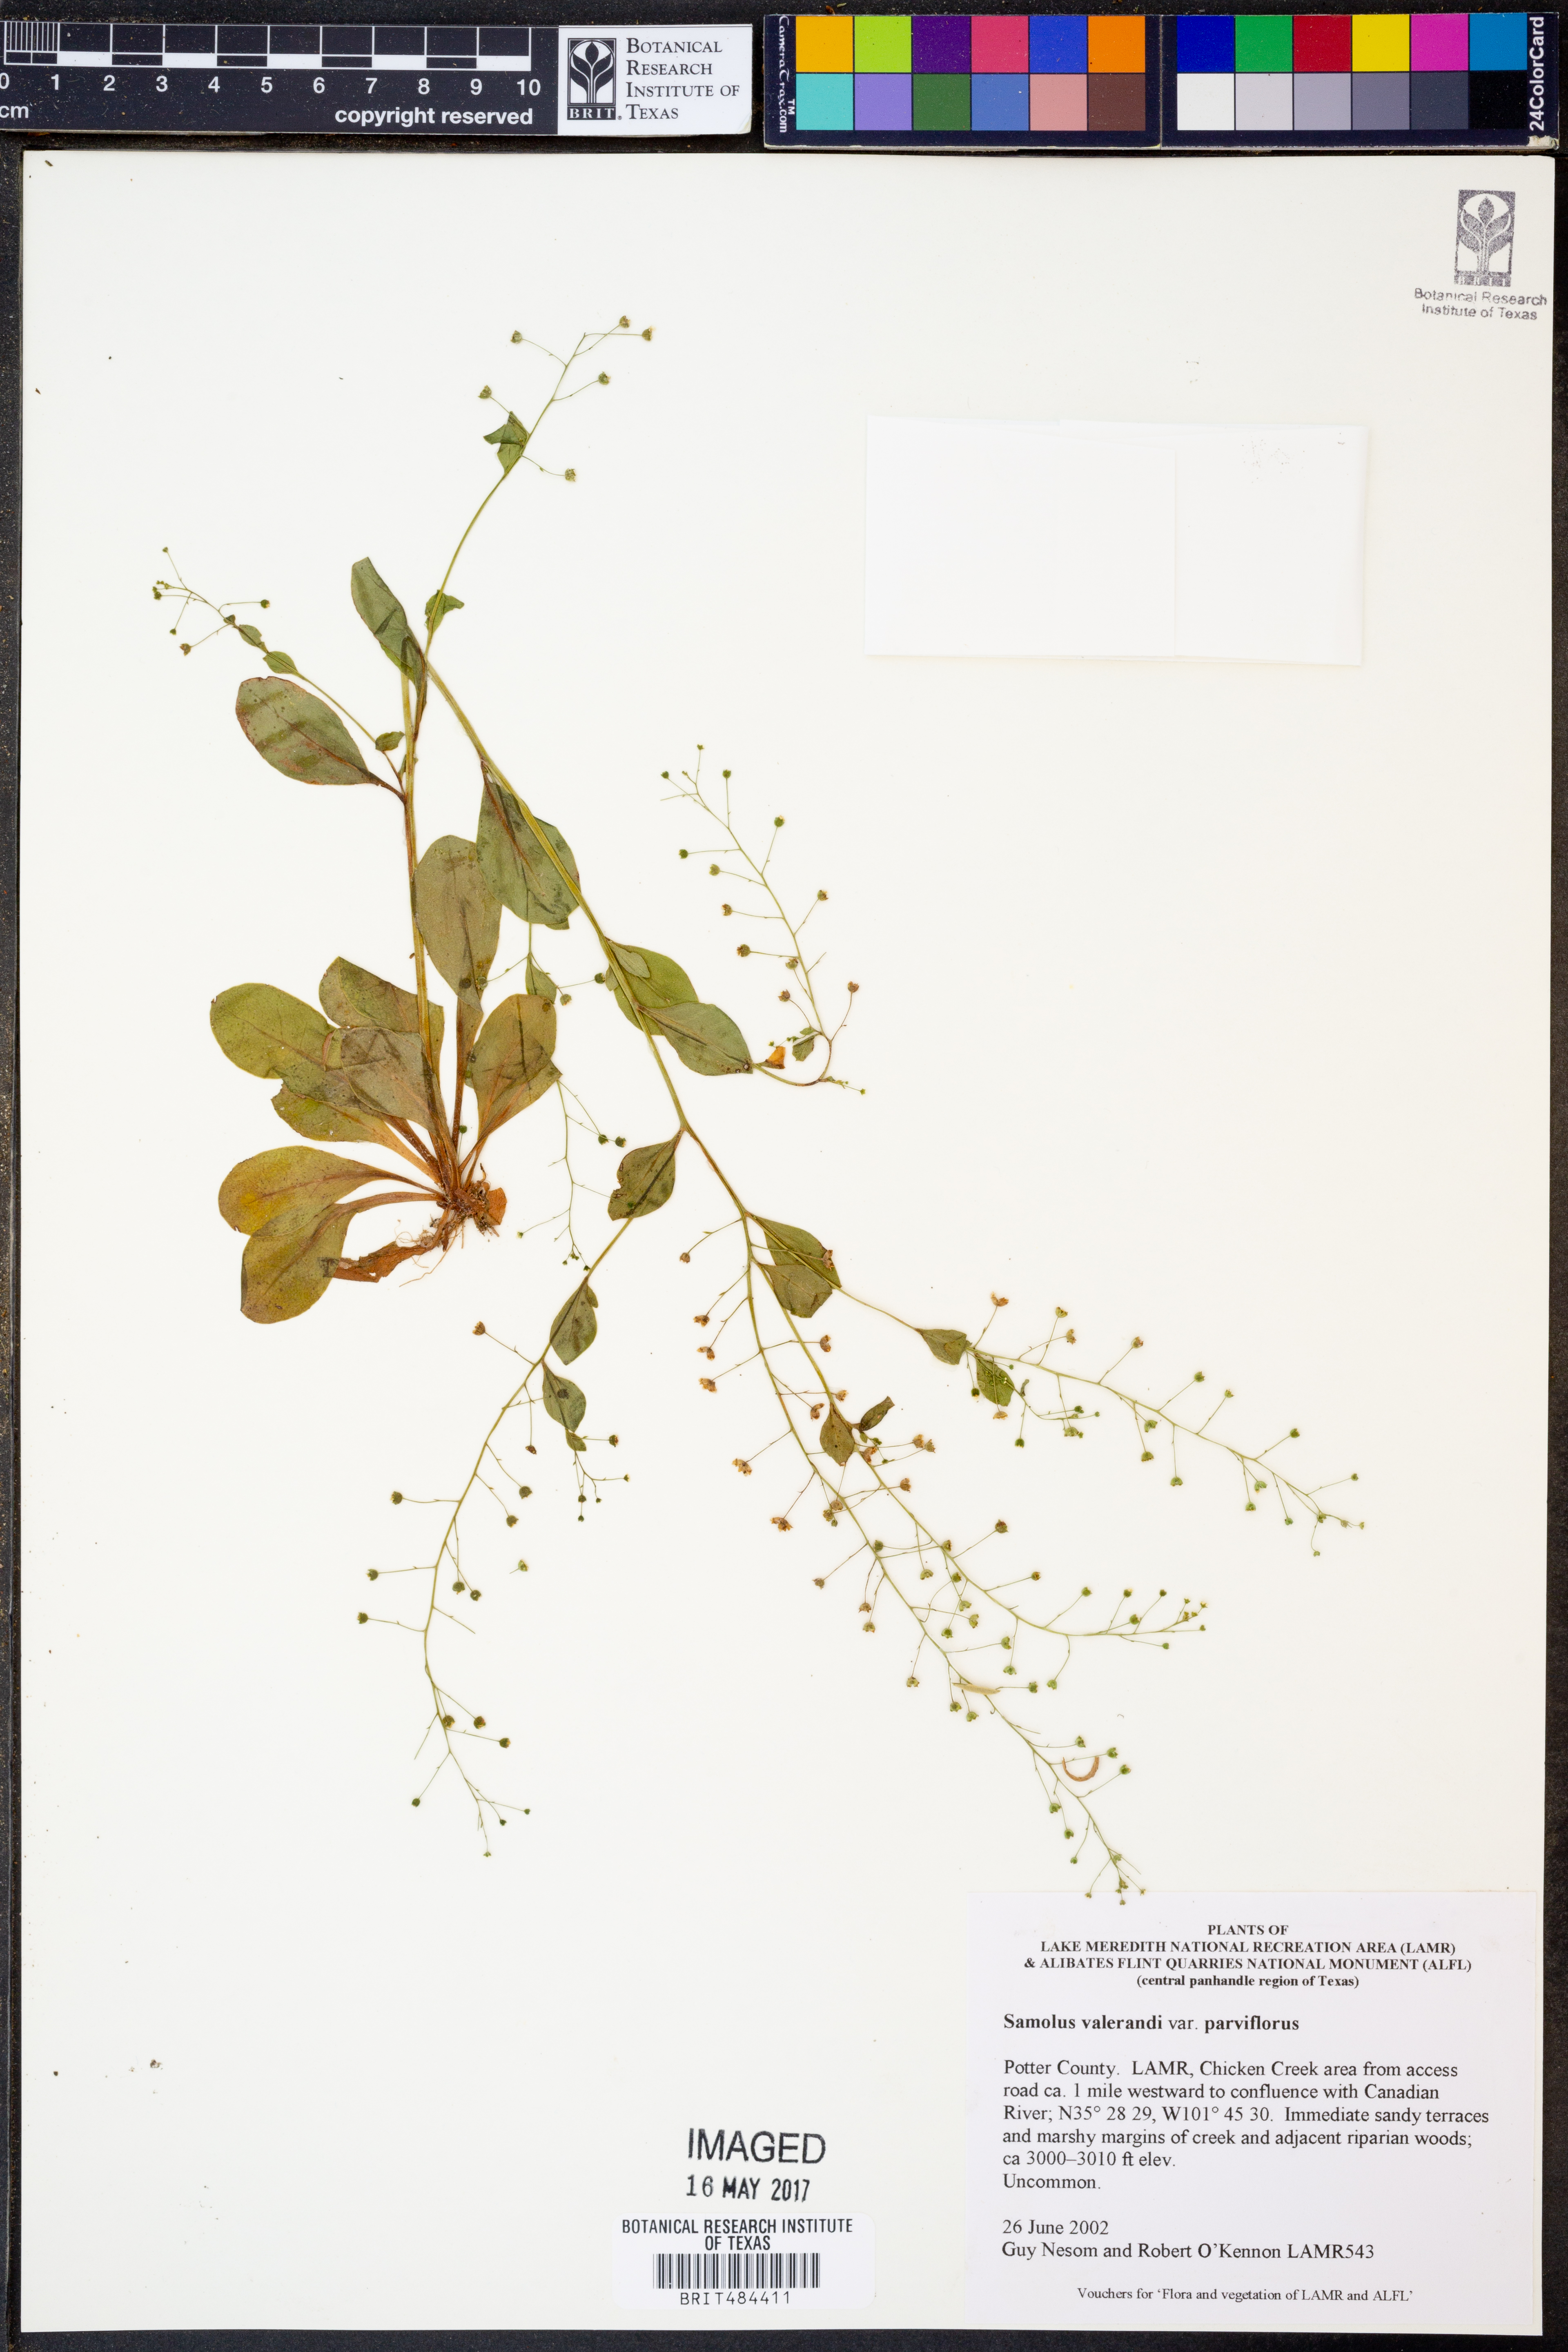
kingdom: Plantae
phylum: Tracheophyta
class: Magnoliopsida
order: Ericales
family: Primulaceae
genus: Samolus
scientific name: Samolus parviflorus
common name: False water pimpernel
